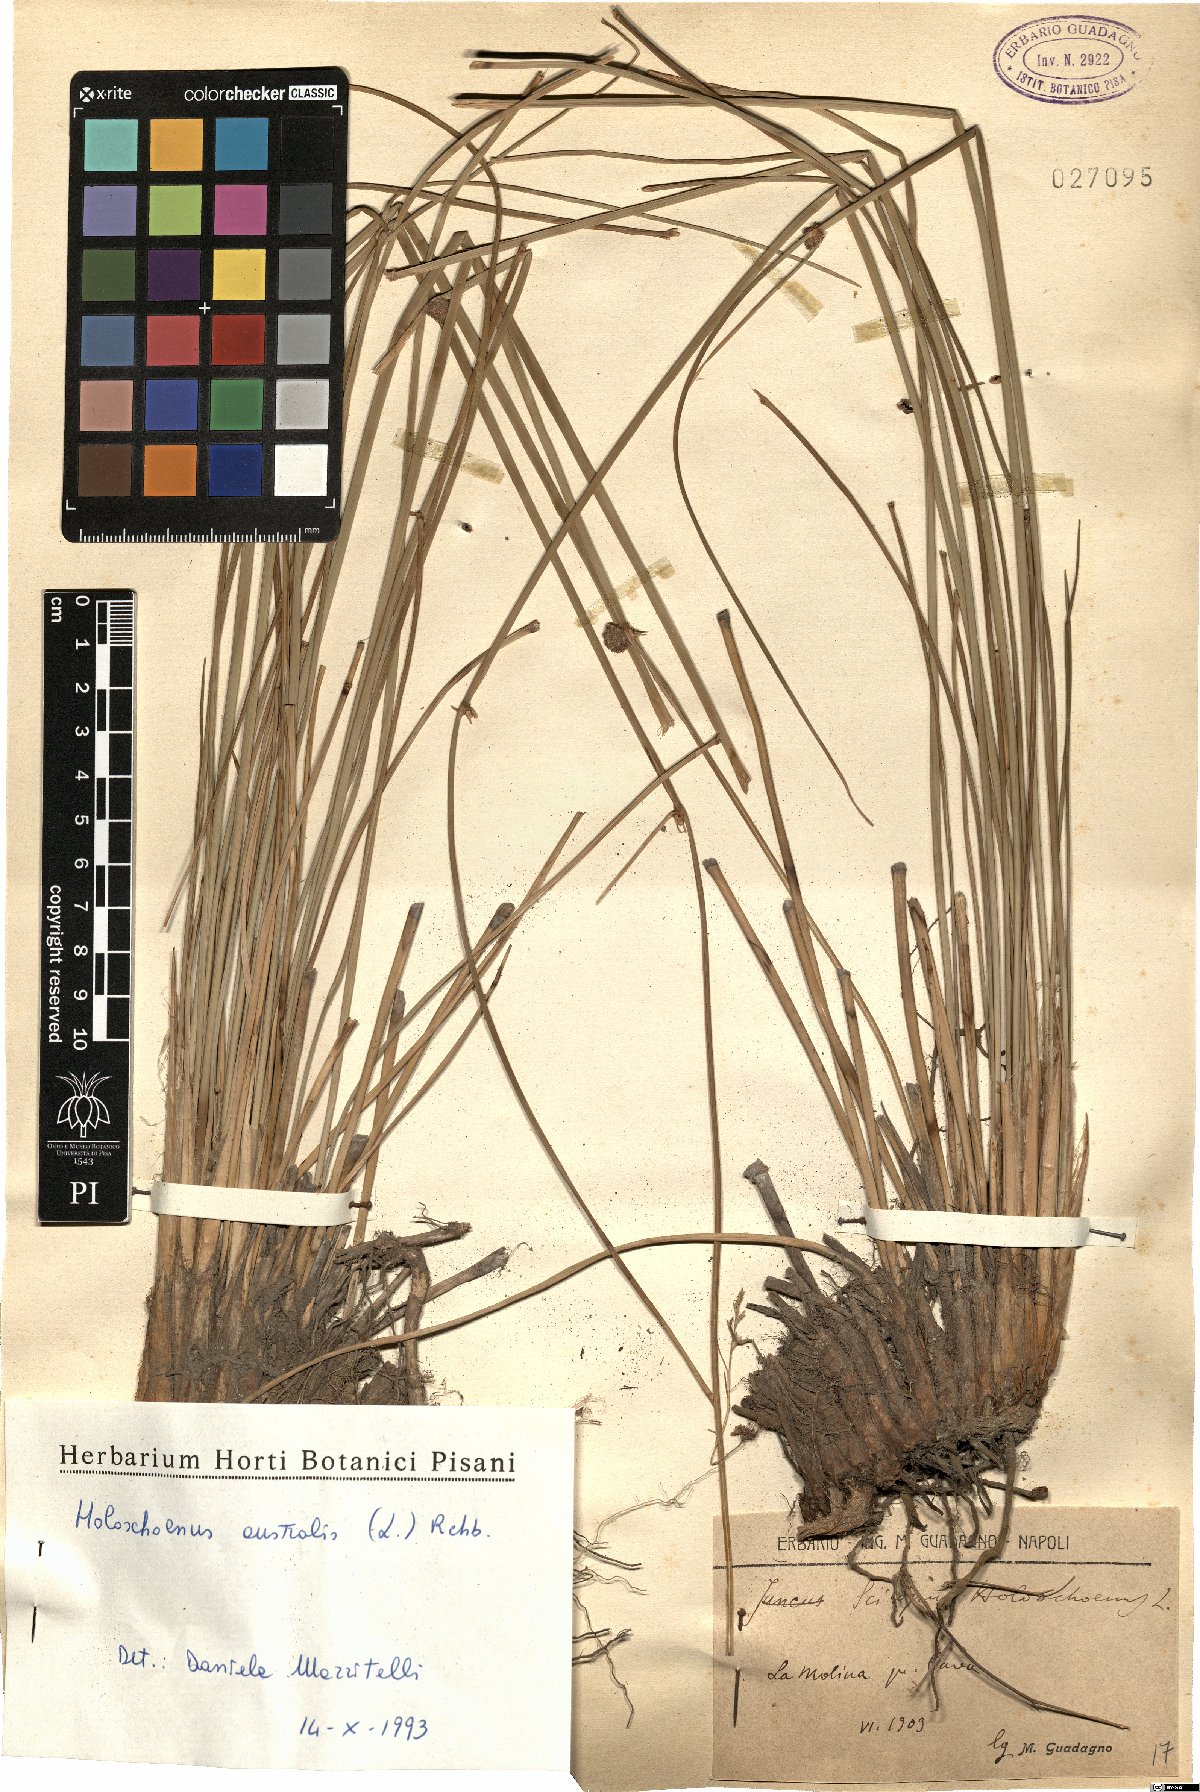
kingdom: Plantae
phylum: Tracheophyta
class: Liliopsida
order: Poales
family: Cyperaceae
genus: Scirpoides
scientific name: Scirpoides holoschoenus
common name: Round-headed club-rush
